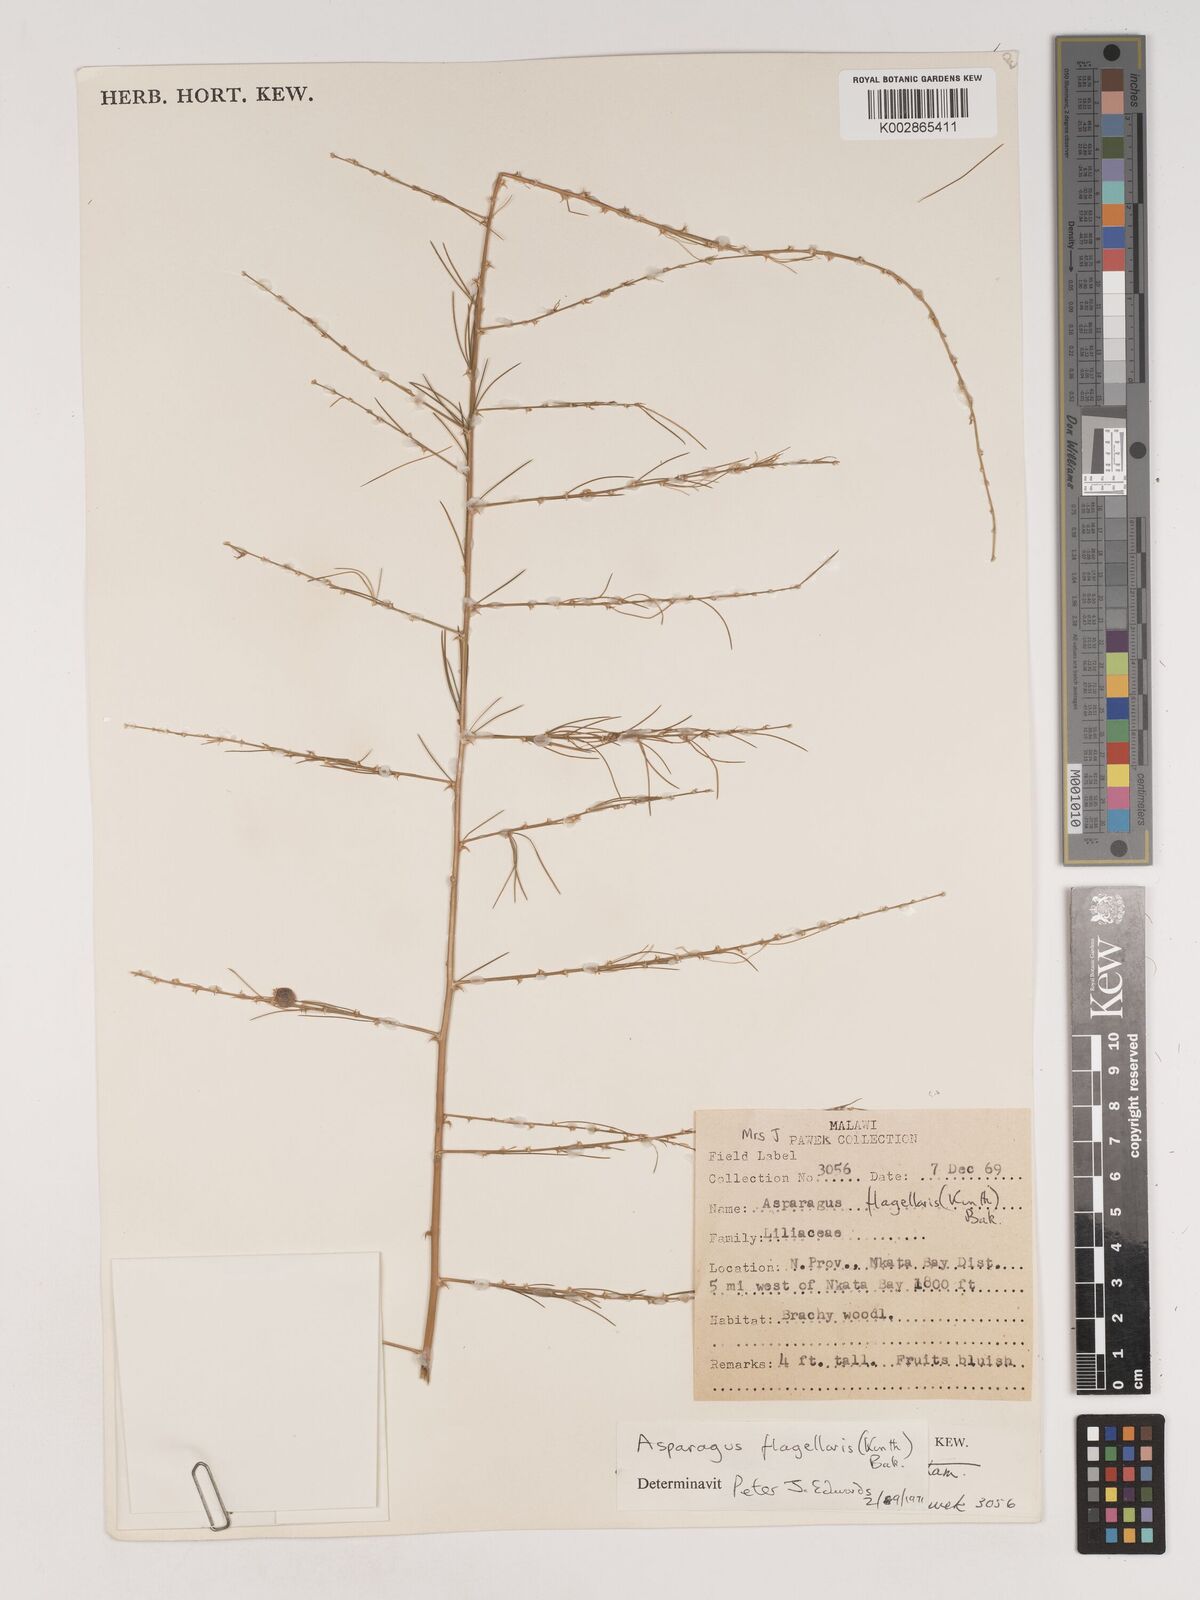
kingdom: Plantae
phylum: Tracheophyta
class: Liliopsida
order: Asparagales
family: Asparagaceae
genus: Asparagus
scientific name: Asparagus flagellaris
